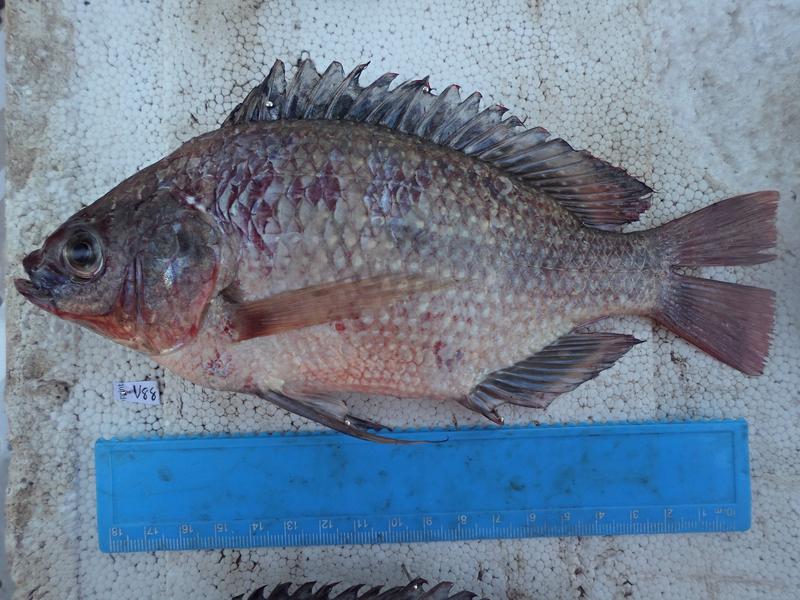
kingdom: Animalia
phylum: Chordata
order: Perciformes
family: Cichlidae
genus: Oreochromis
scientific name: Oreochromis esculentus
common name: Carp
